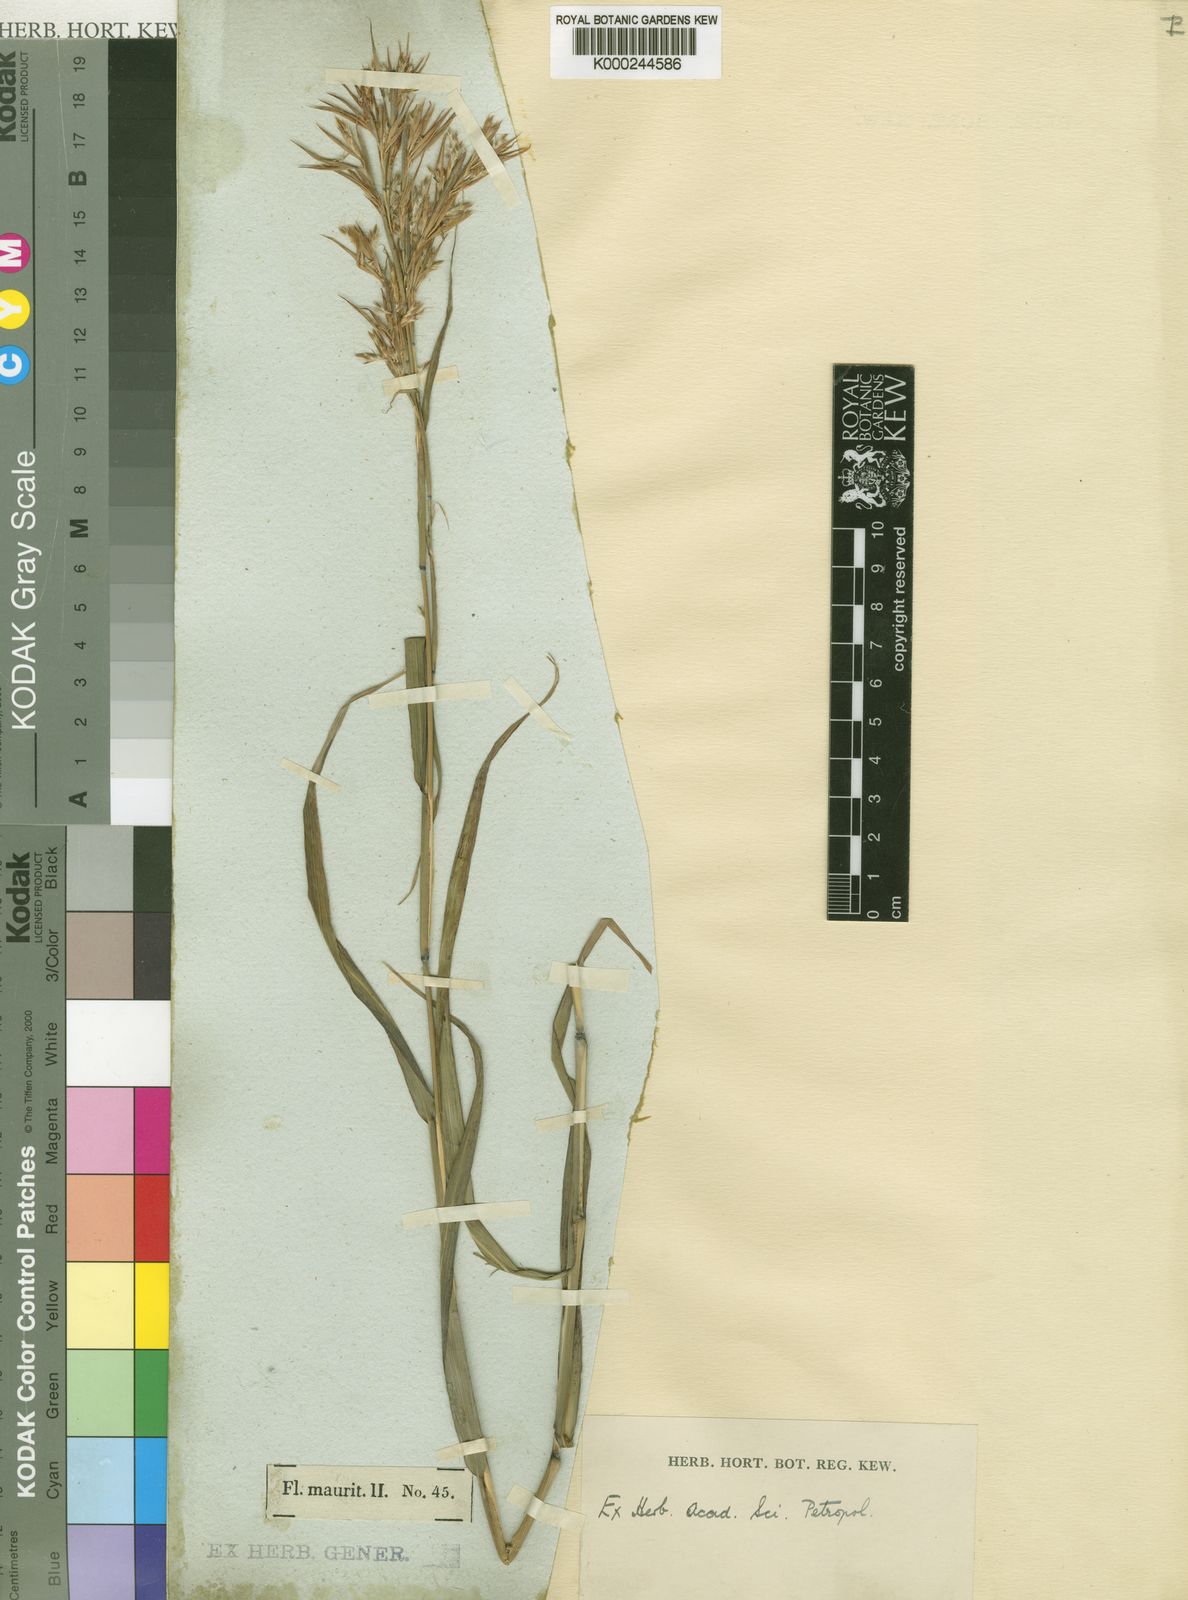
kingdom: Plantae
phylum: Tracheophyta
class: Liliopsida
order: Poales
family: Poaceae
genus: Cymbopogon
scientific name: Cymbopogon pruinosus
